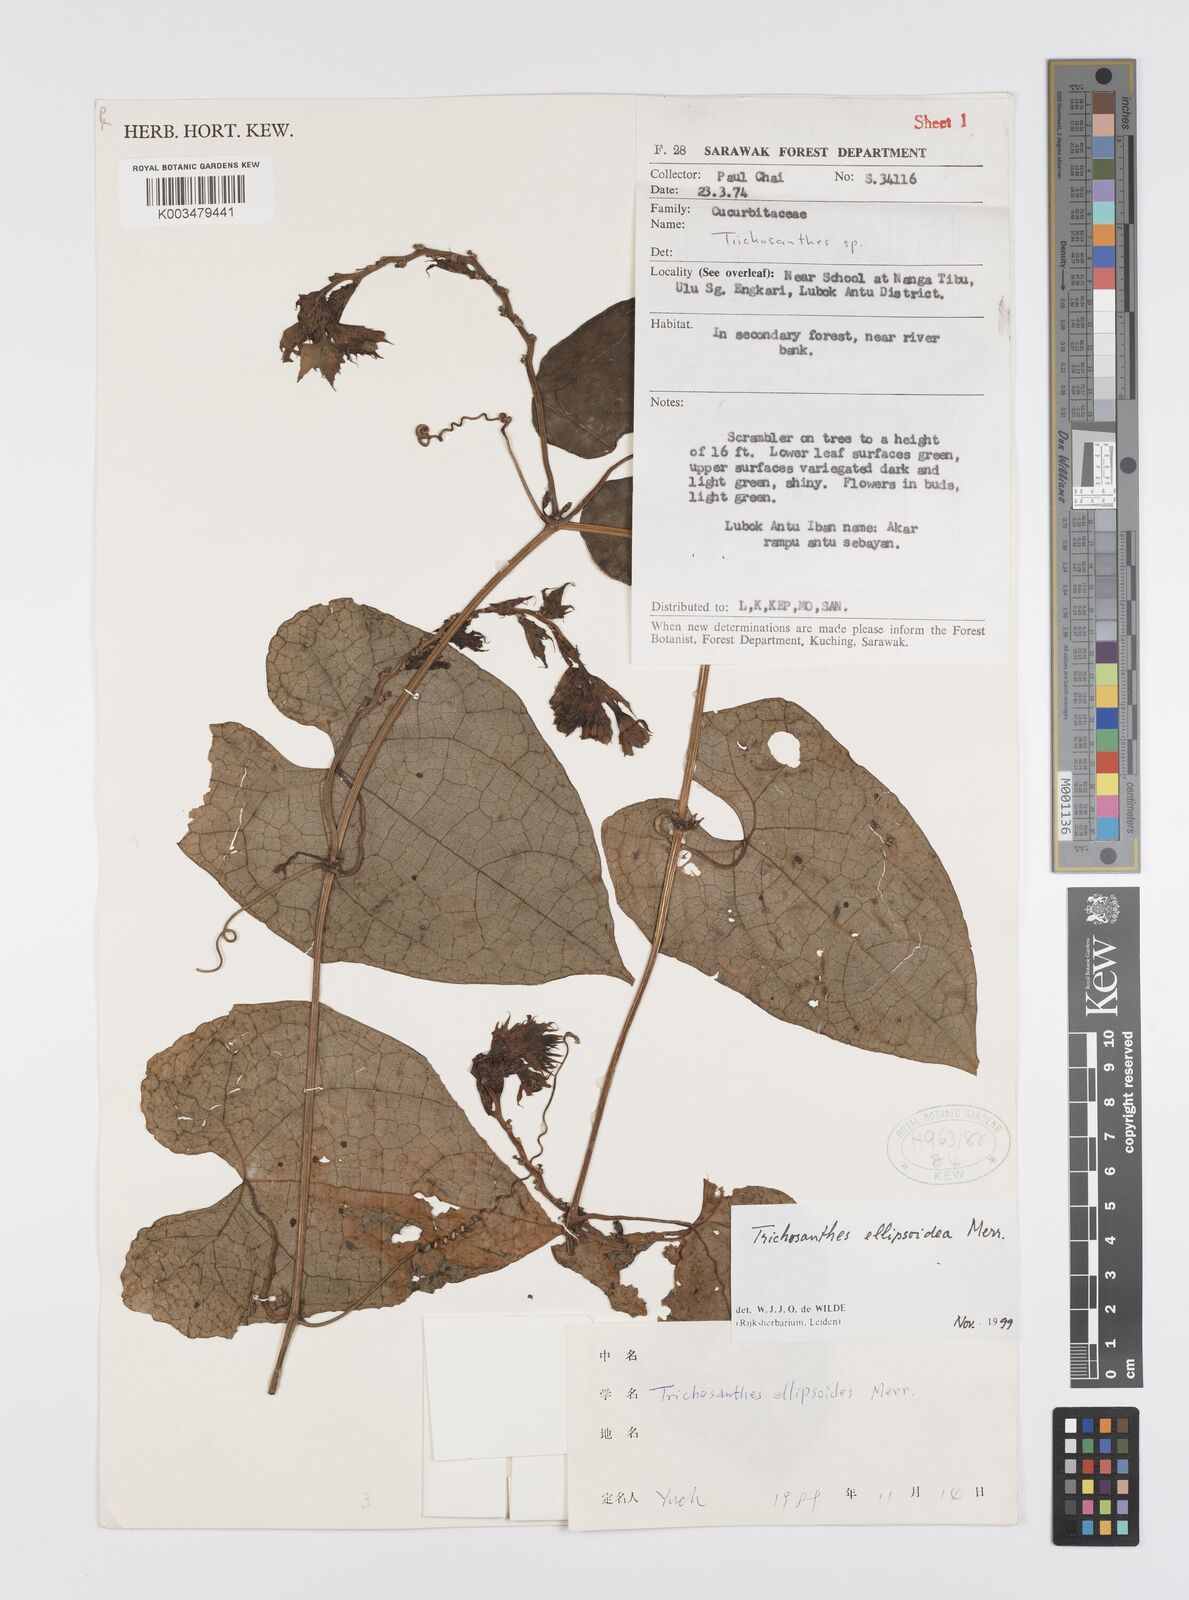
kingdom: Plantae
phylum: Tracheophyta
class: Magnoliopsida
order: Cucurbitales
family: Cucurbitaceae
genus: Trichosanthes
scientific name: Trichosanthes ellipsoidea
